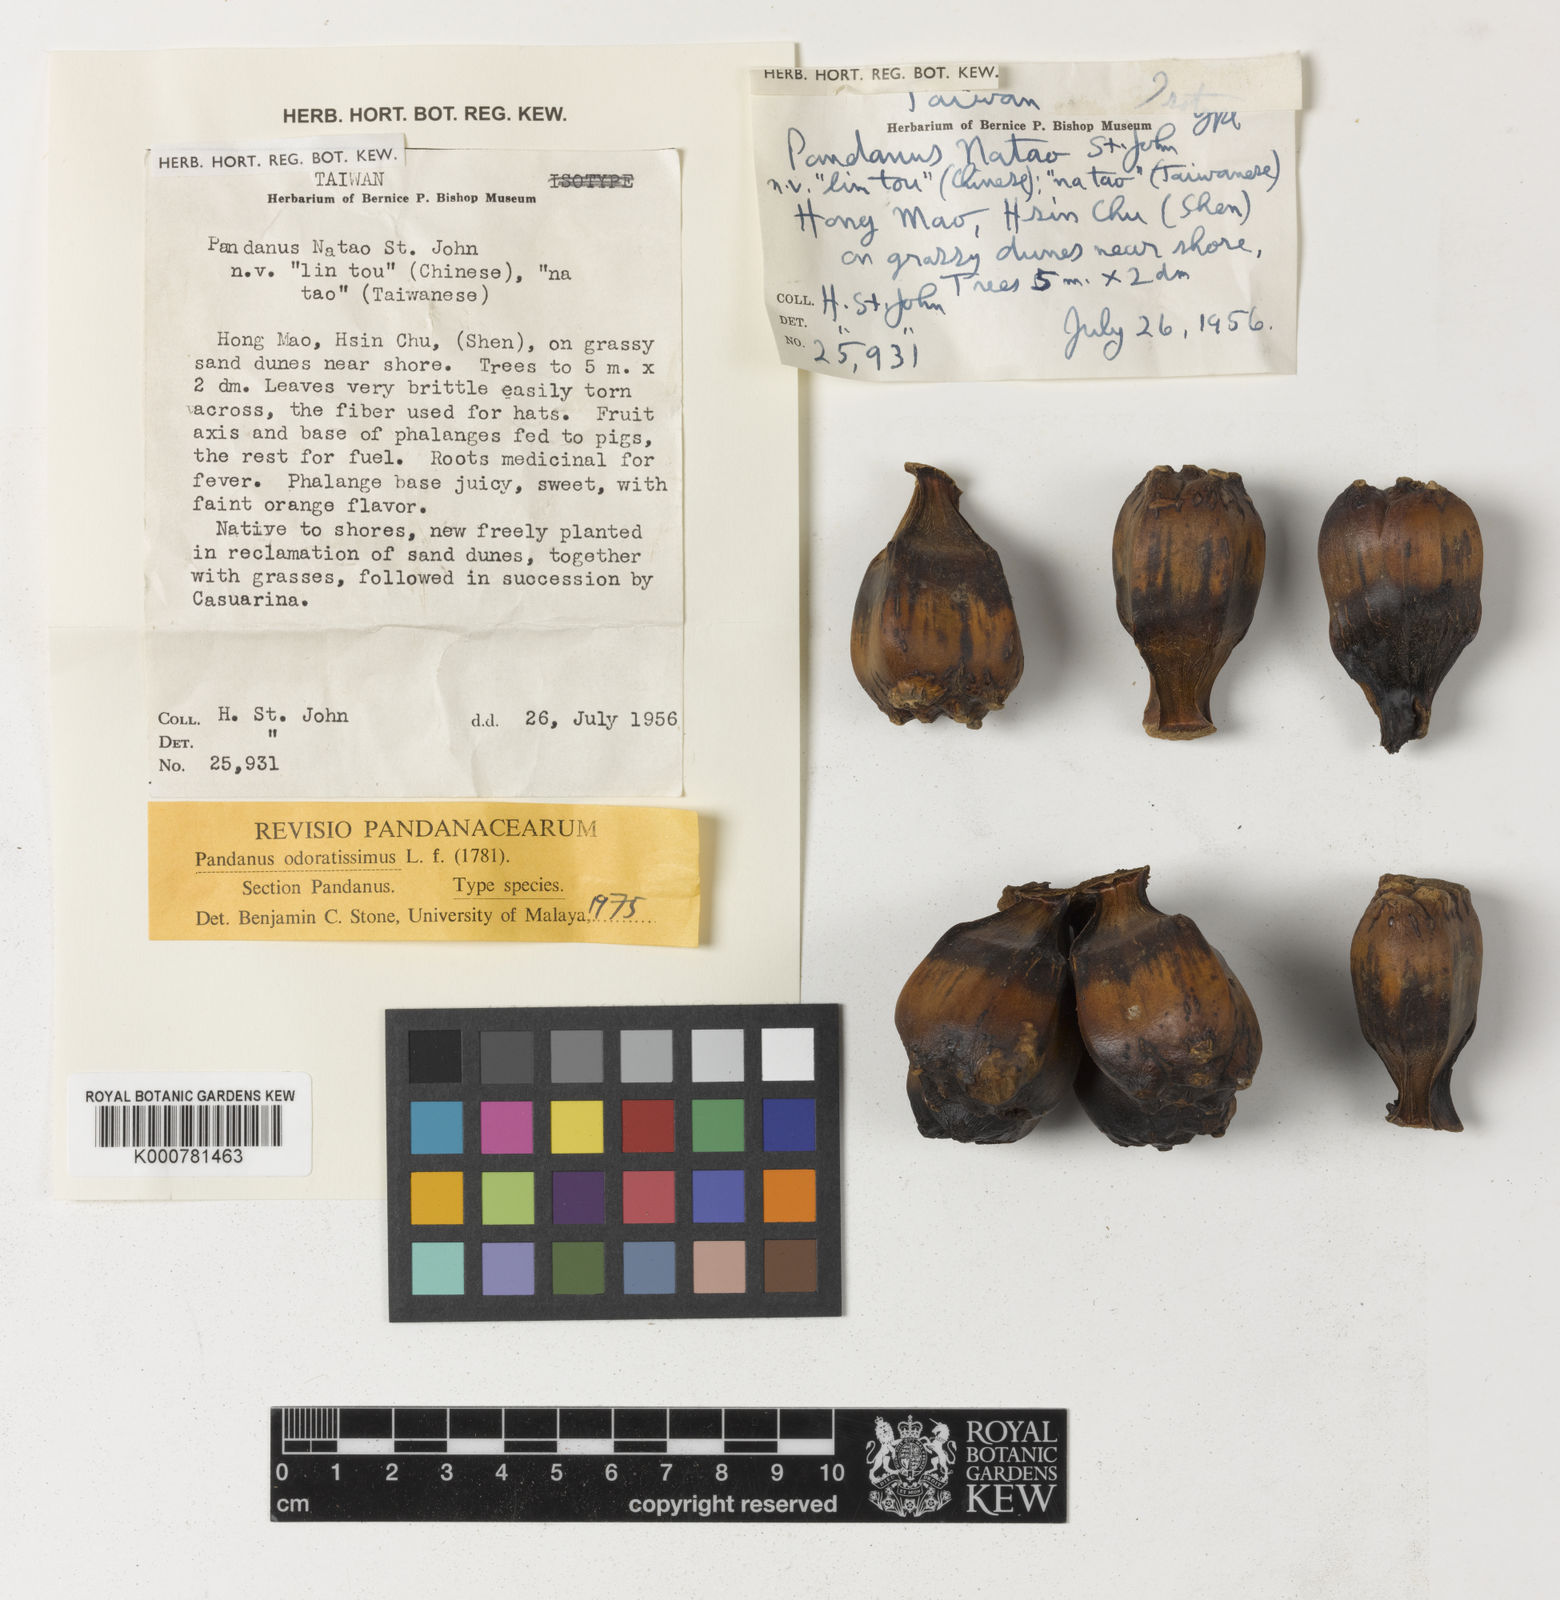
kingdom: Plantae
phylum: Tracheophyta
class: Liliopsida
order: Pandanales
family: Pandanaceae
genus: Pandanus
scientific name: Pandanus odorifer
